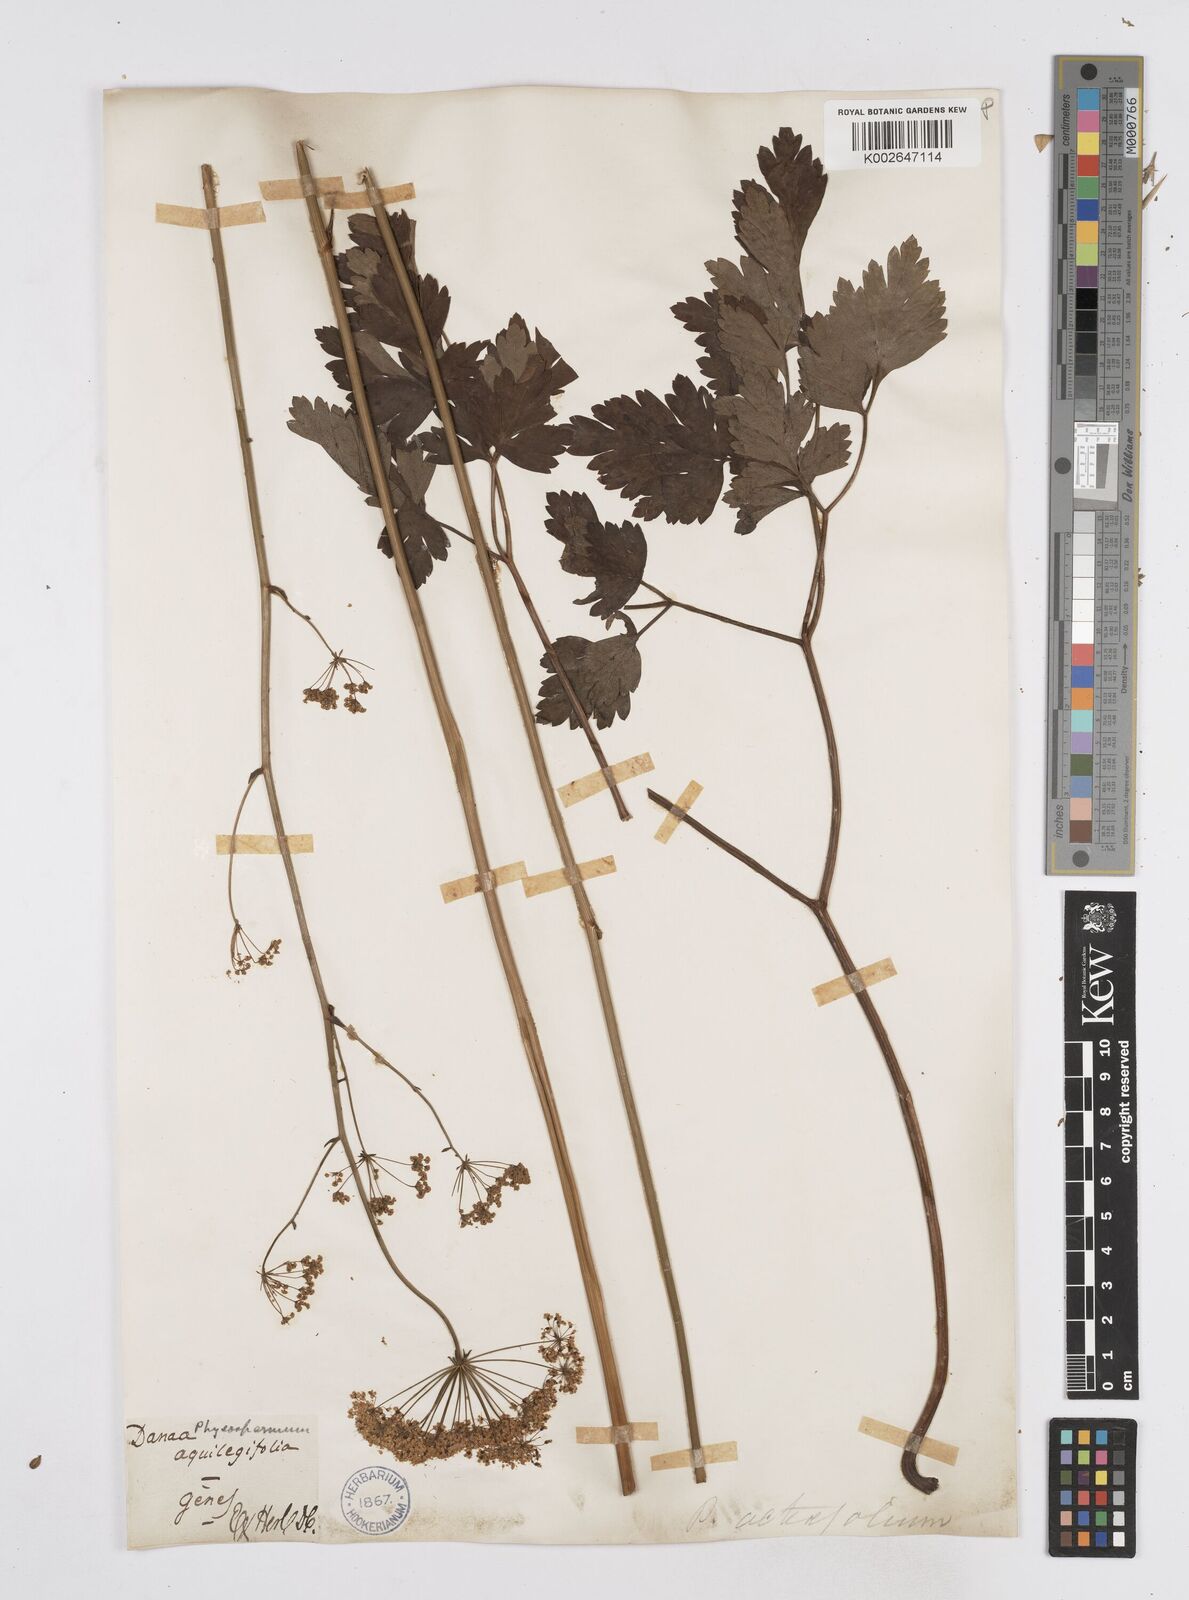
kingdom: Plantae
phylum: Tracheophyta
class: Magnoliopsida
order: Apiales
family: Apiaceae
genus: Physospermum
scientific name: Physospermum verticillatum
